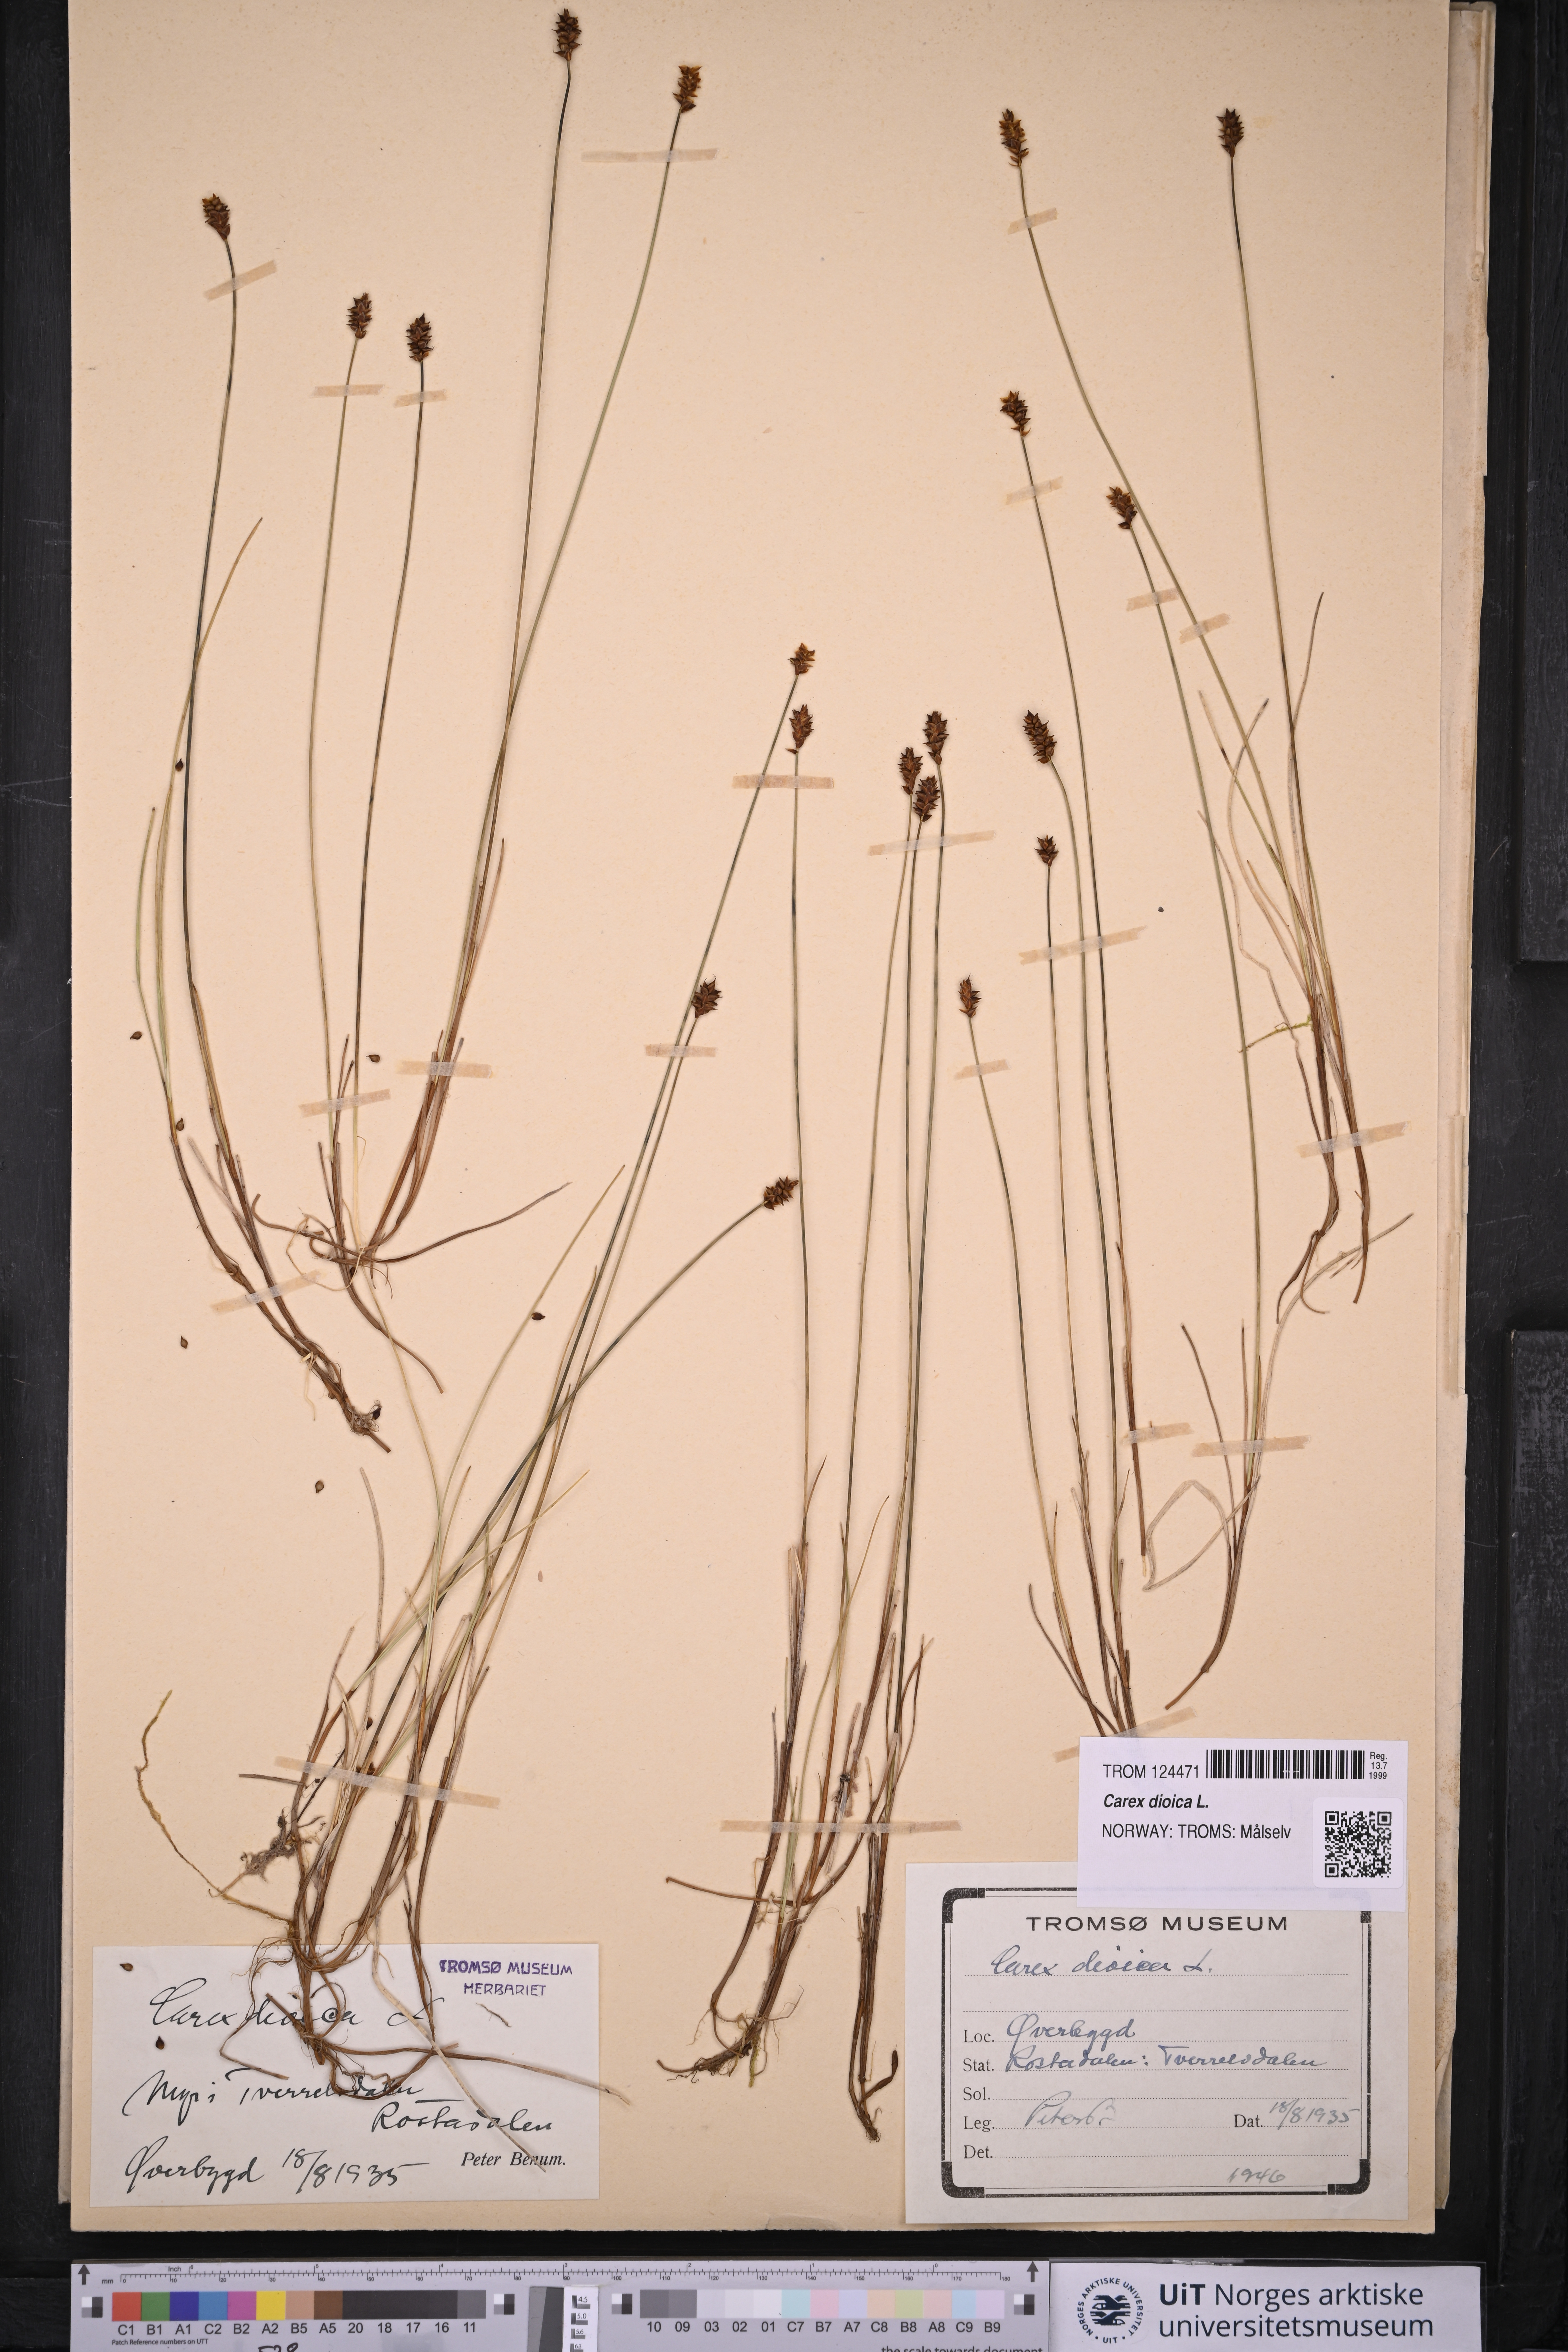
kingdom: Plantae
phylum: Tracheophyta
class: Liliopsida
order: Poales
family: Cyperaceae
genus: Carex
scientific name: Carex dioica
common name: Dioecious sedge
